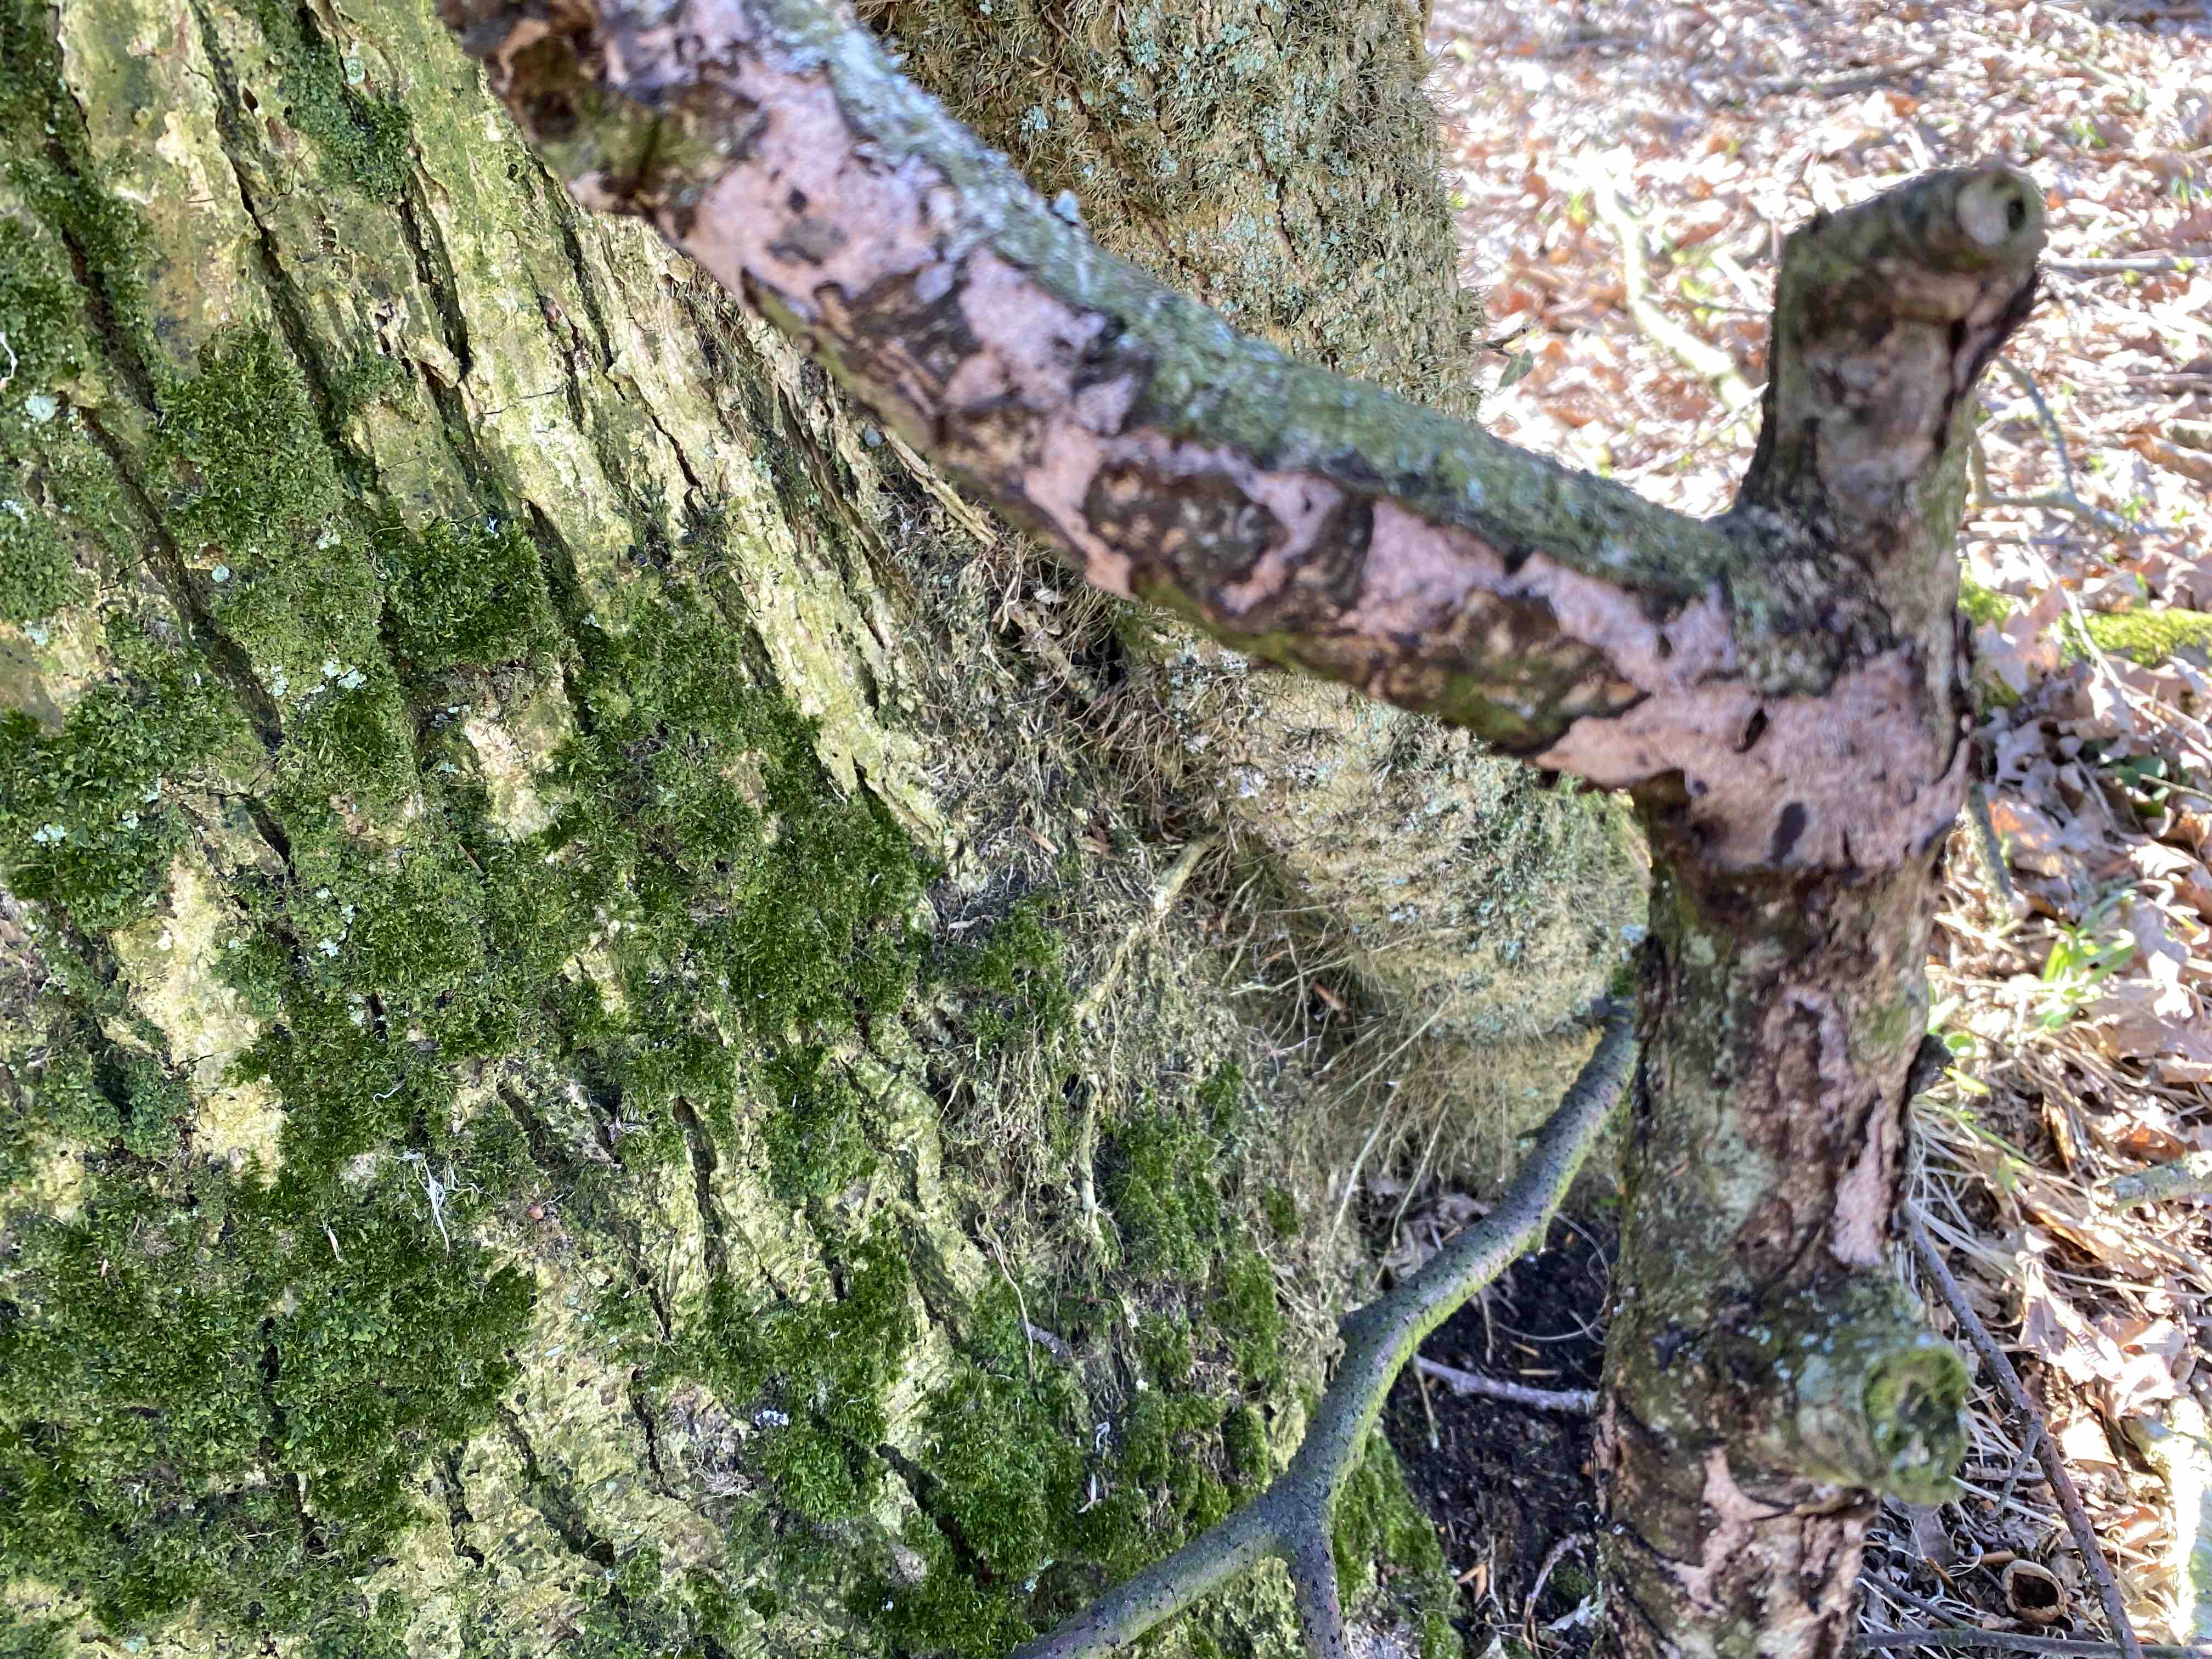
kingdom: Fungi
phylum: Basidiomycota
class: Agaricomycetes
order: Russulales
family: Peniophoraceae
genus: Peniophora
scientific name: Peniophora quercina
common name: ege-voksskind
